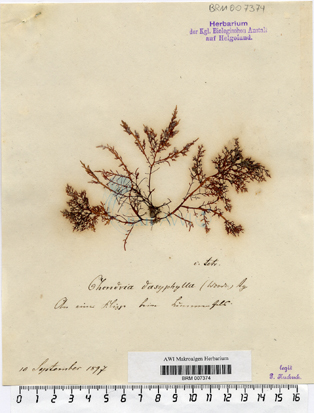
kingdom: Plantae
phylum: Rhodophyta
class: Florideophyceae
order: Ceramiales
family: Rhodomelaceae
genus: Chondria
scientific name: Chondria dasyphylla
